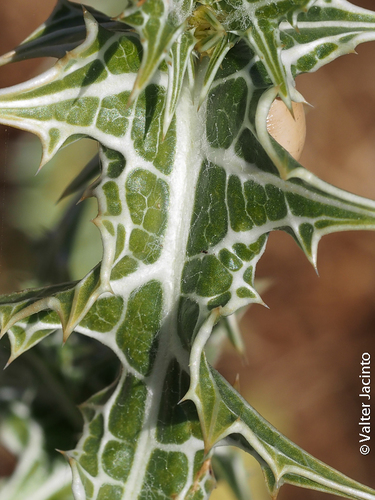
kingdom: Plantae
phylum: Tracheophyta
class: Magnoliopsida
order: Asterales
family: Asteraceae
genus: Scolymus
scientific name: Scolymus maculatus
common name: Spotted thistle
